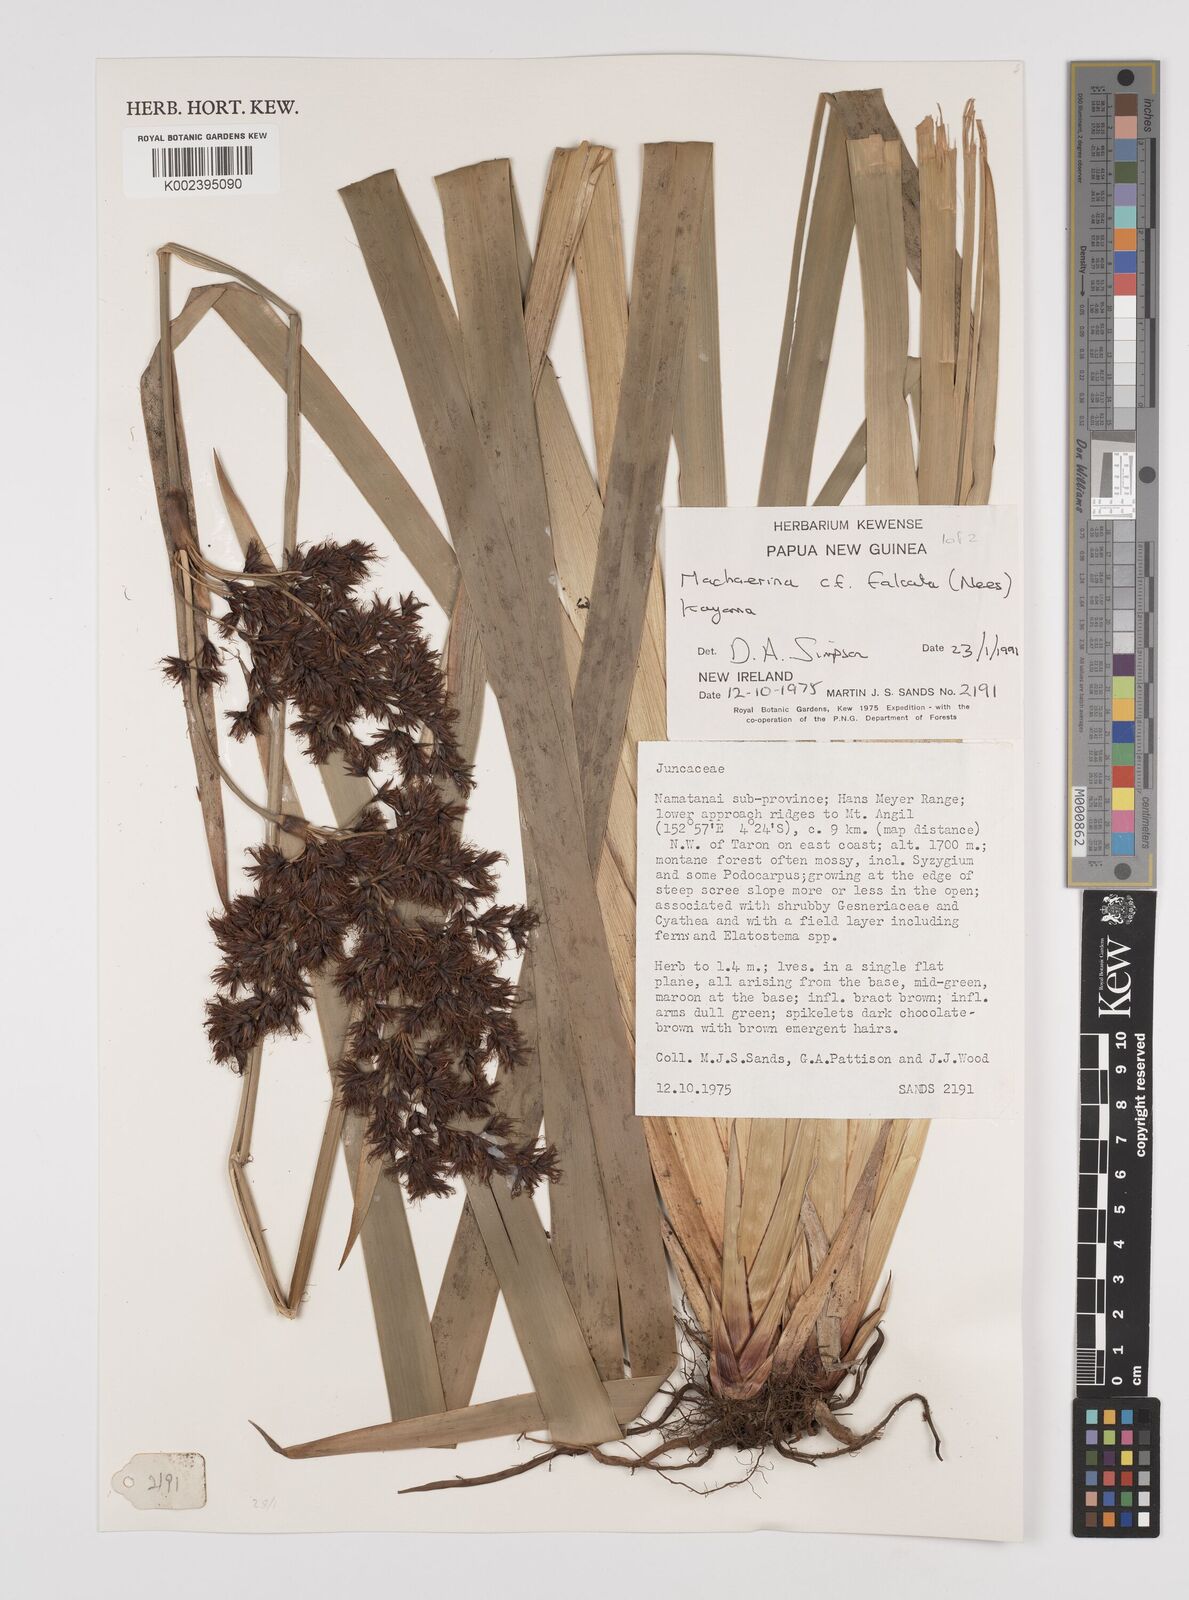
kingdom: Plantae
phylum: Tracheophyta
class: Liliopsida
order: Poales
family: Cyperaceae
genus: Machaerina
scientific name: Machaerina falcata
